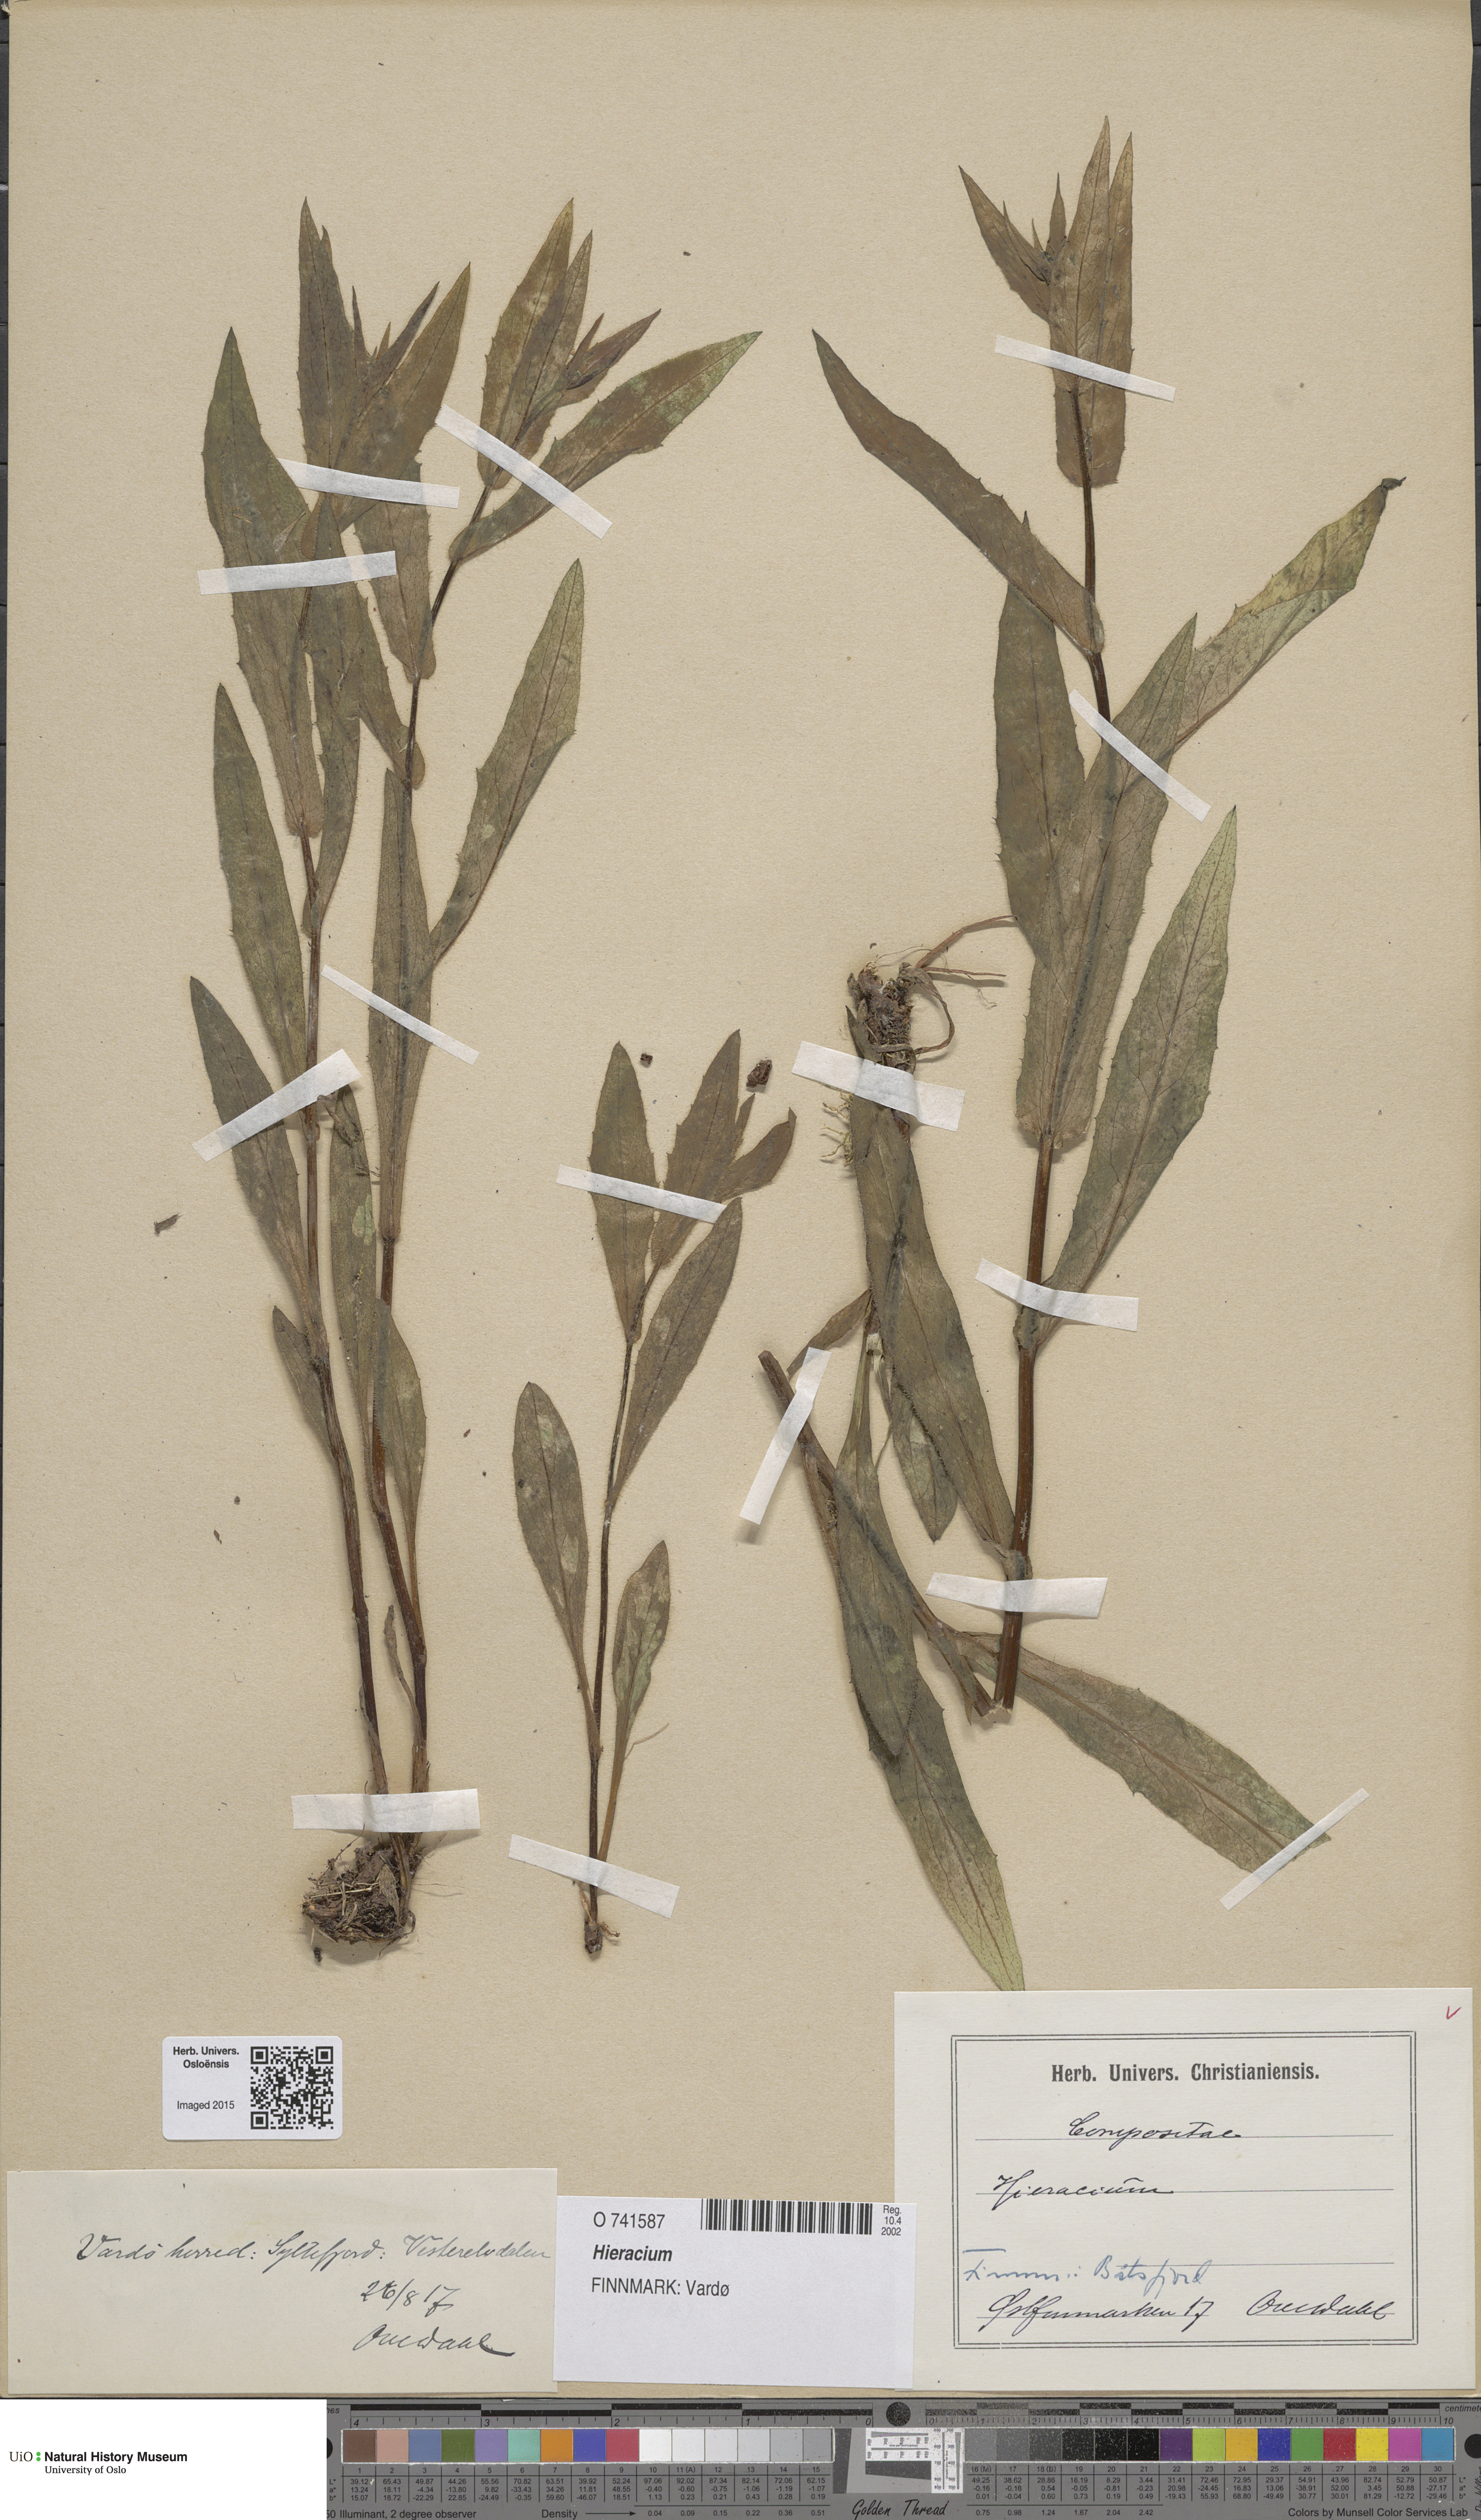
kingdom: Plantae
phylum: Tracheophyta
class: Magnoliopsida
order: Asterales
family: Asteraceae
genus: Hieracium
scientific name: Hieracium
